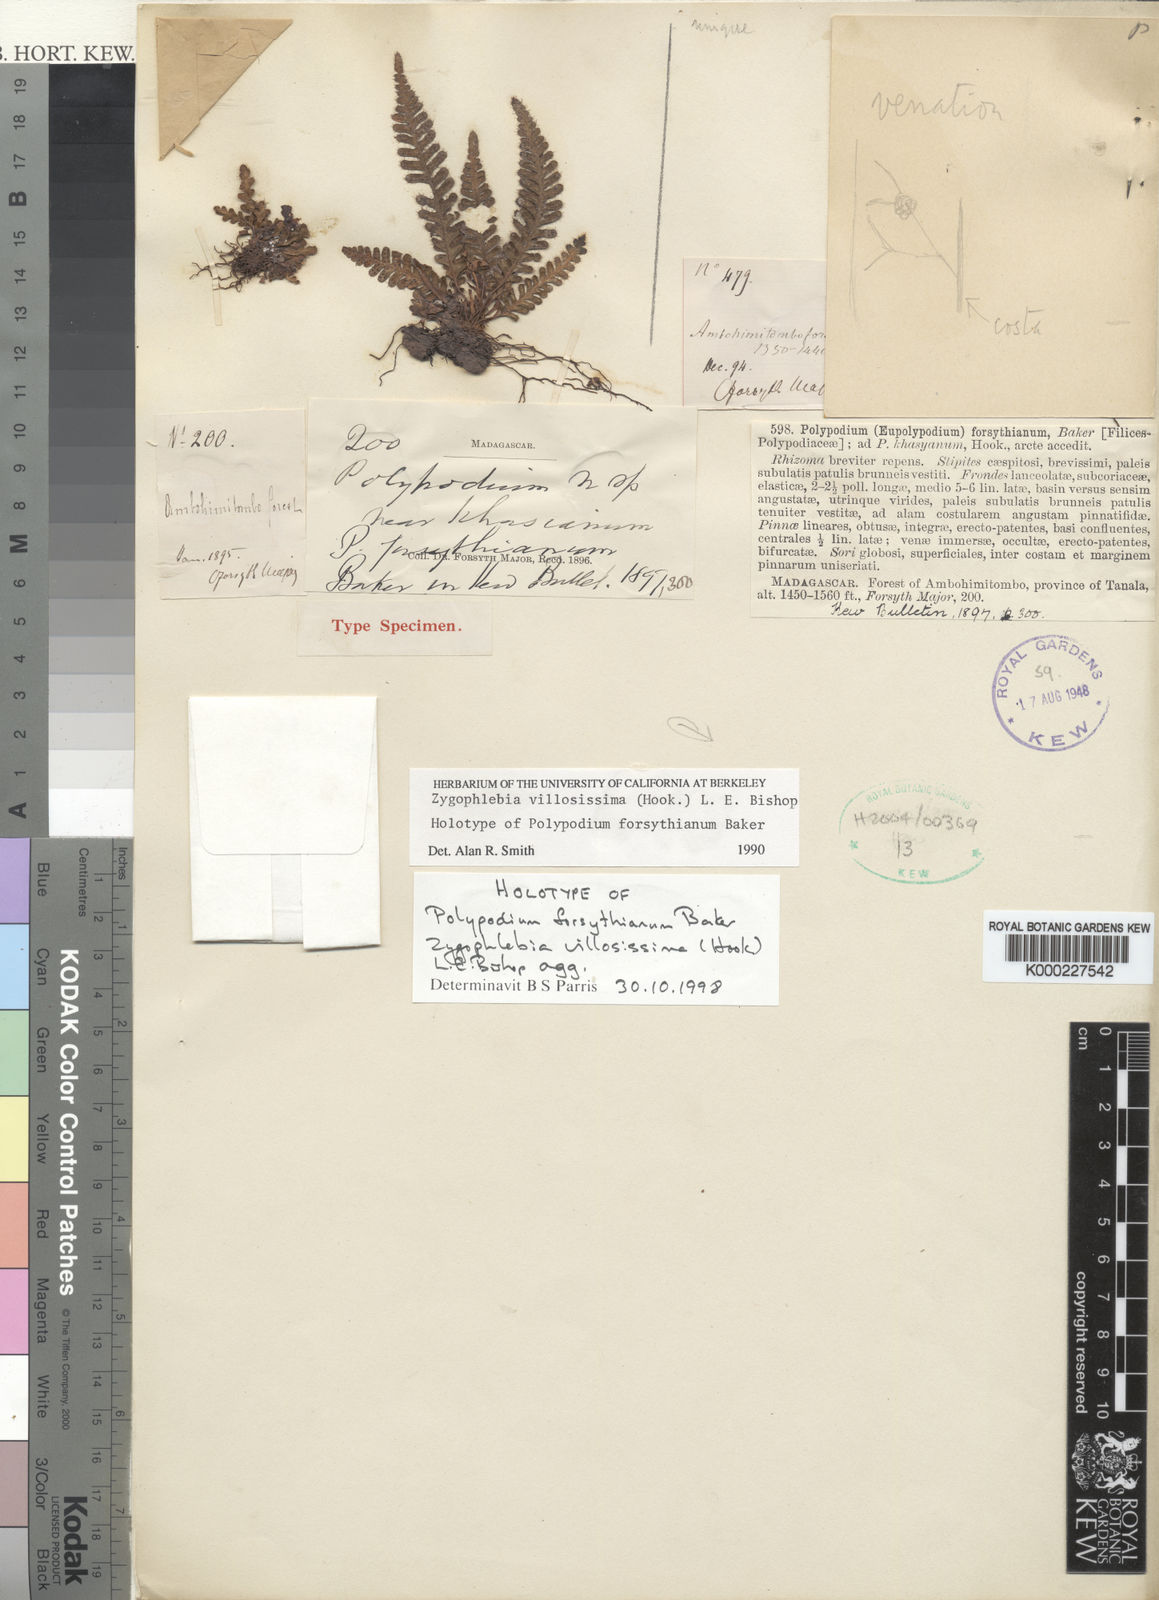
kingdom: Plantae
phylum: Tracheophyta
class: Polypodiopsida
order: Polypodiales
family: Polypodiaceae
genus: Enterosora
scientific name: Enterosora forsythiana
